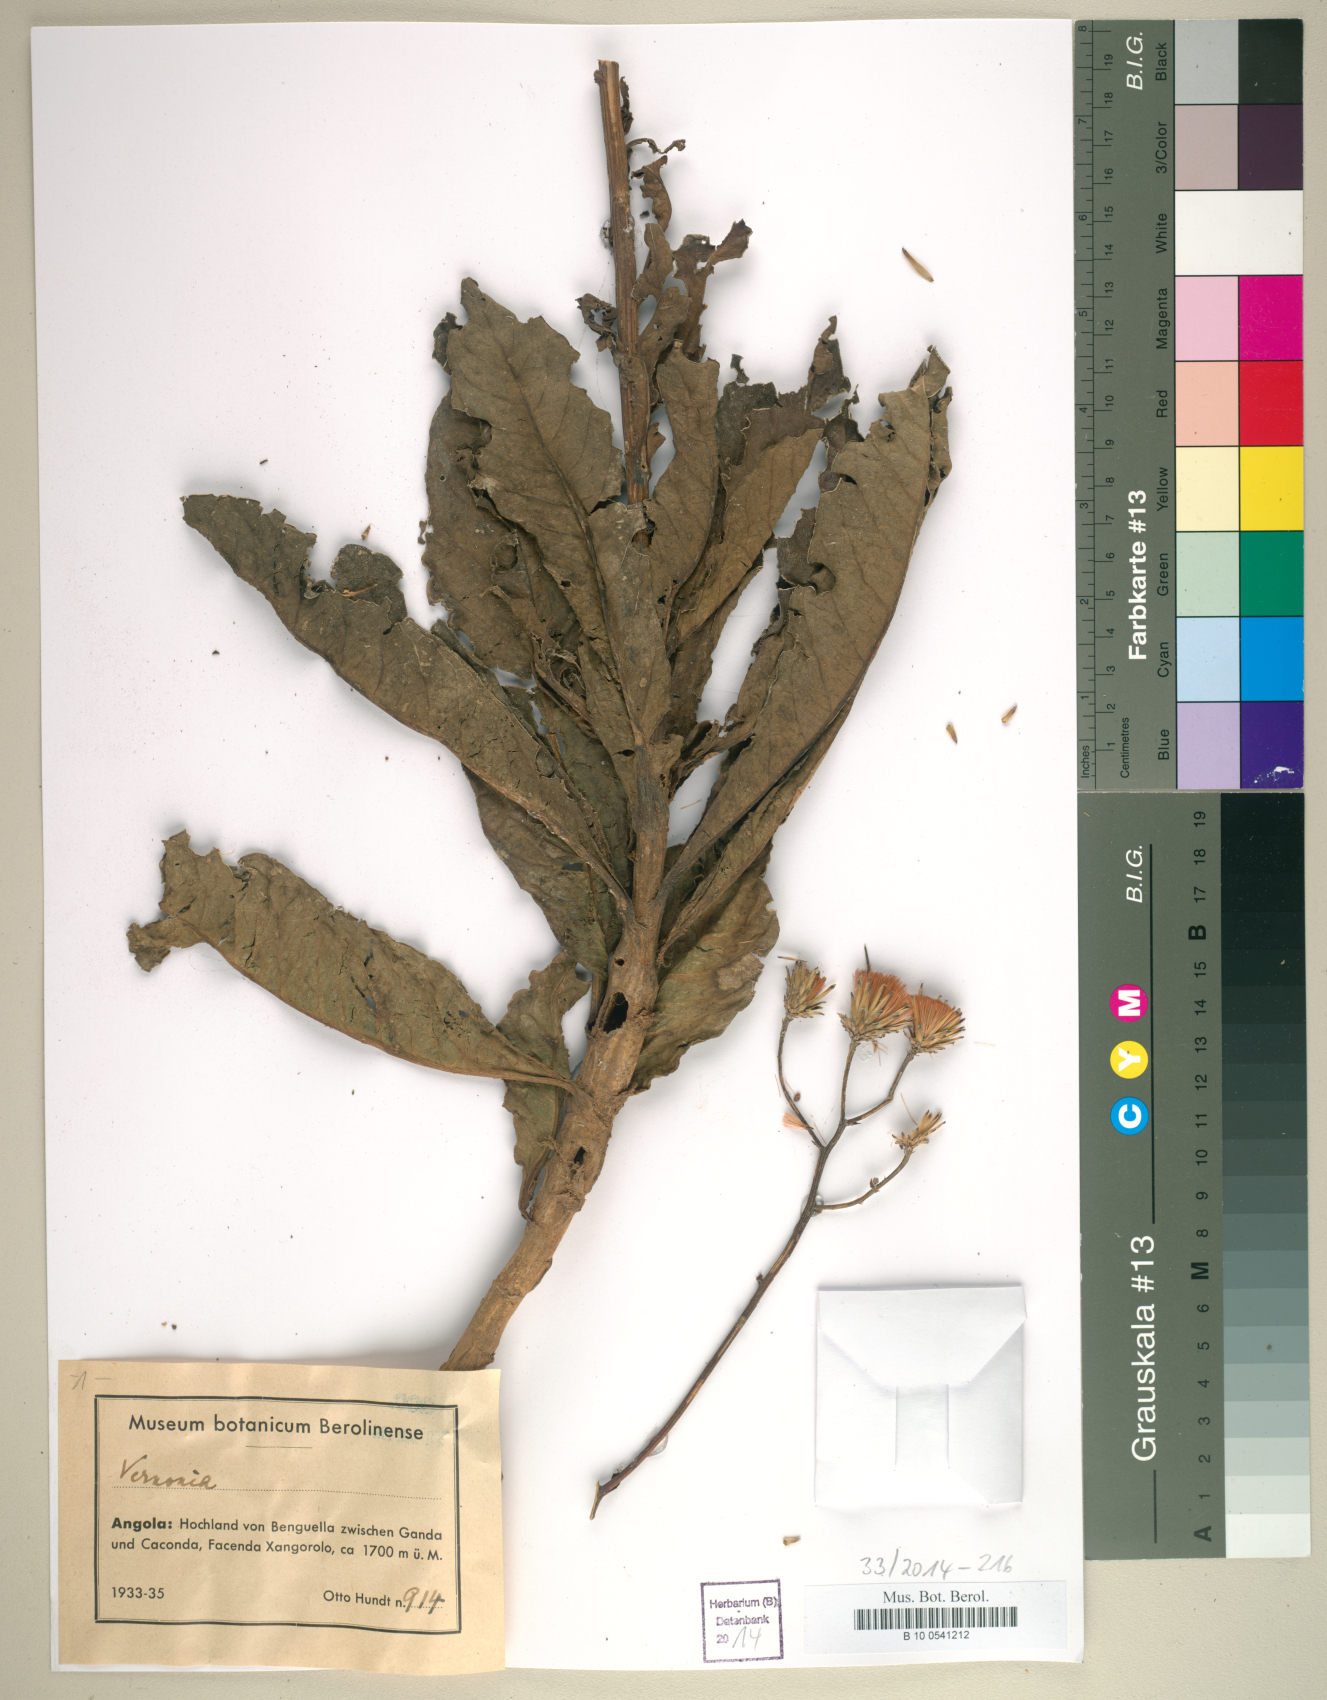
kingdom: Plantae
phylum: Tracheophyta
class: Magnoliopsida
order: Asterales
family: Asteraceae
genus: Vernonia
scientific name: Vernonia
